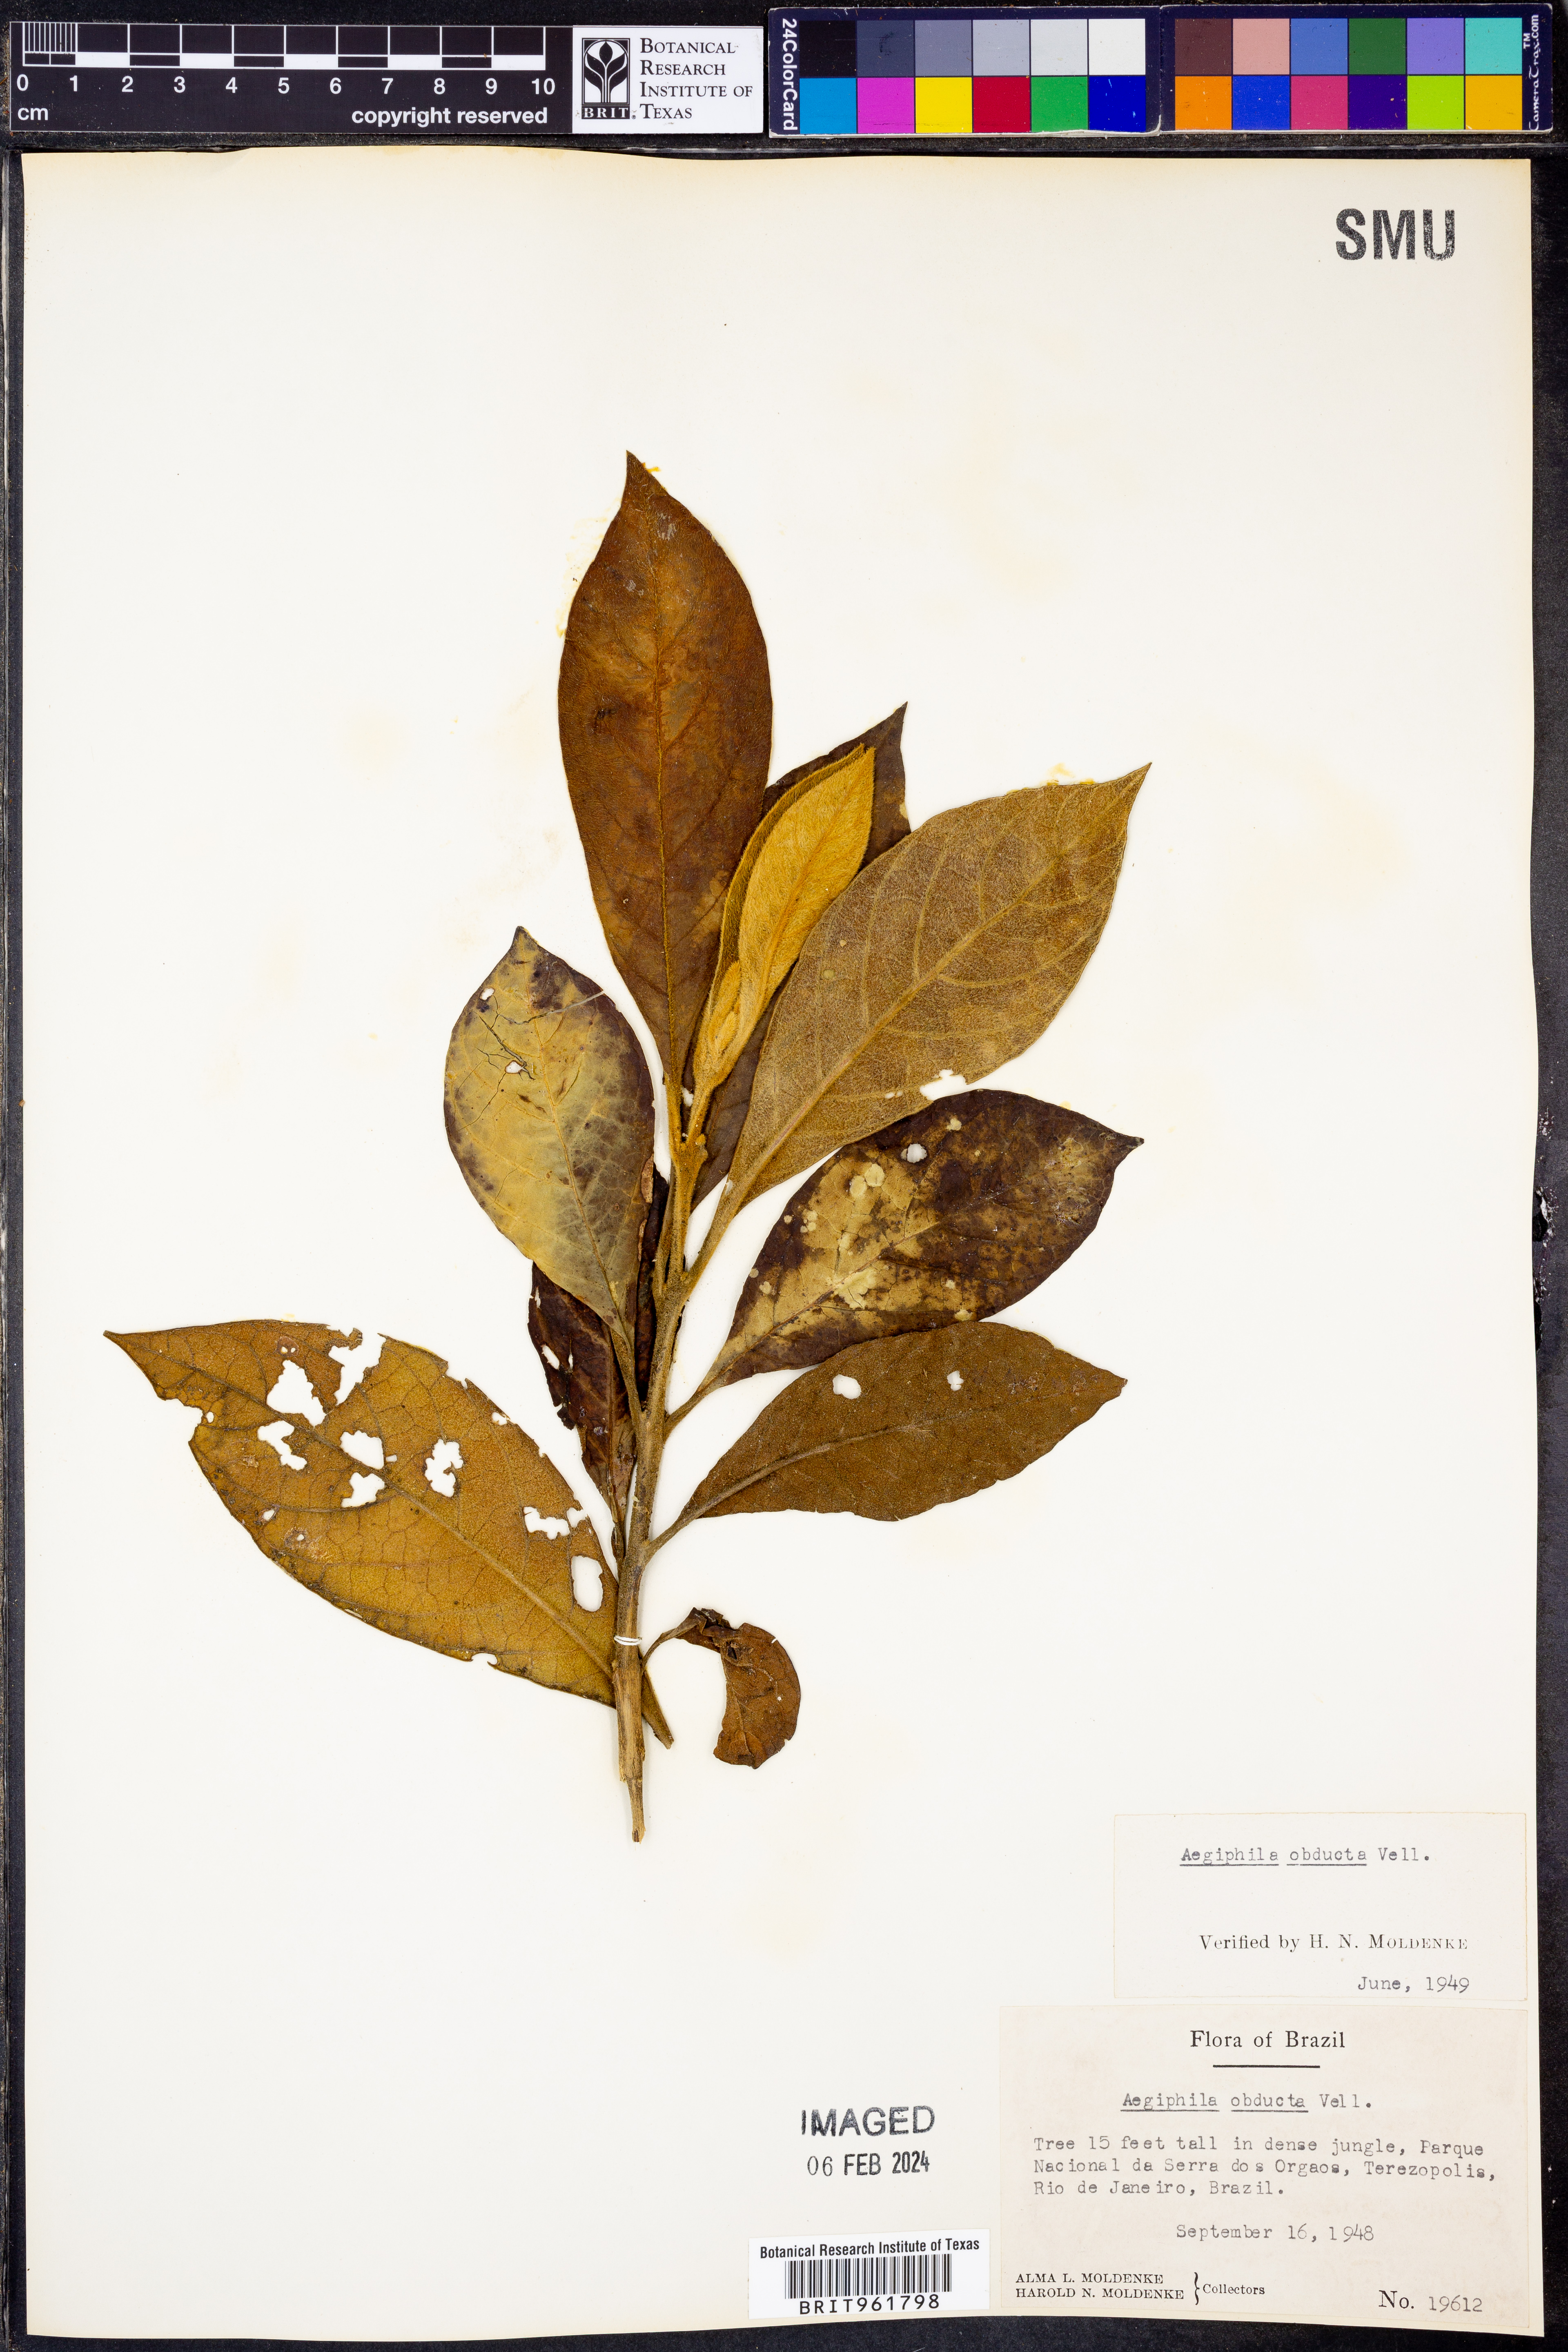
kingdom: Plantae
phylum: Tracheophyta
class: Magnoliopsida
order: Lamiales
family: Lamiaceae
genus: Aegiphila
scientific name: Aegiphila
